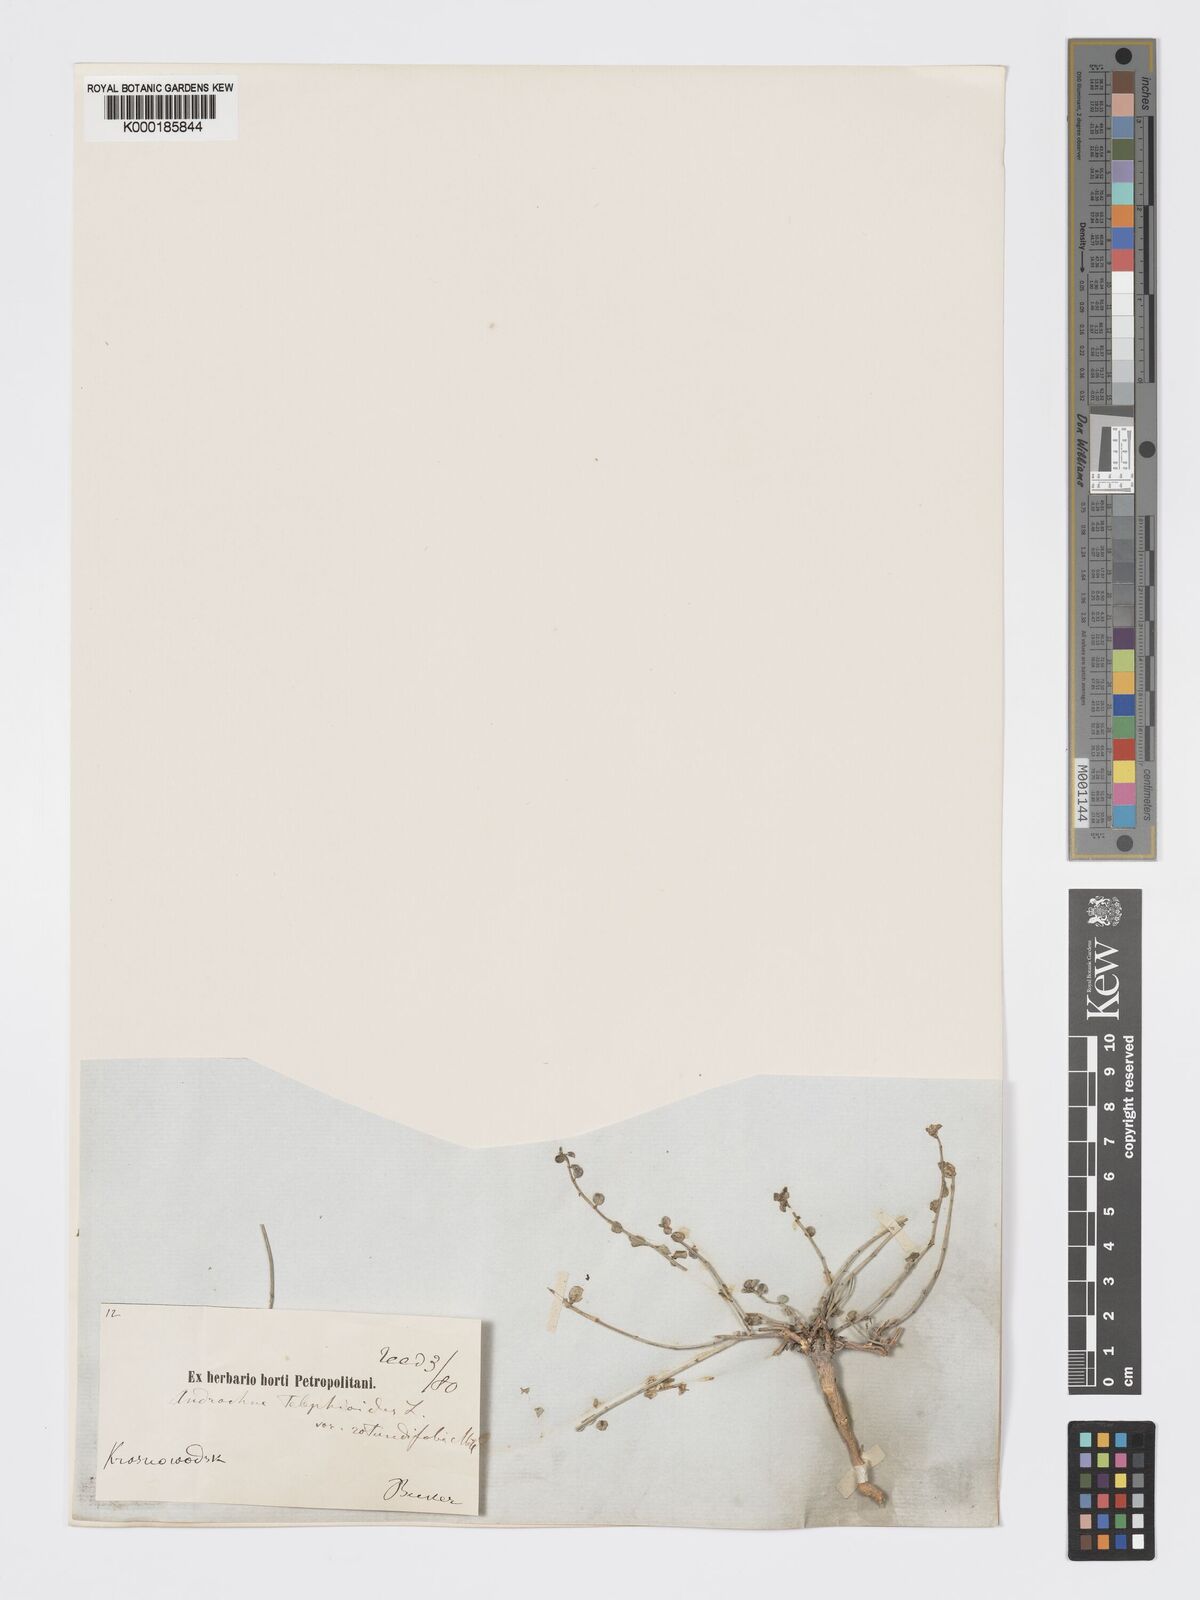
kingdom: Plantae
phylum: Tracheophyta
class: Magnoliopsida
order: Malpighiales
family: Phyllanthaceae
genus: Andrachne
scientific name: Andrachne telephioides
